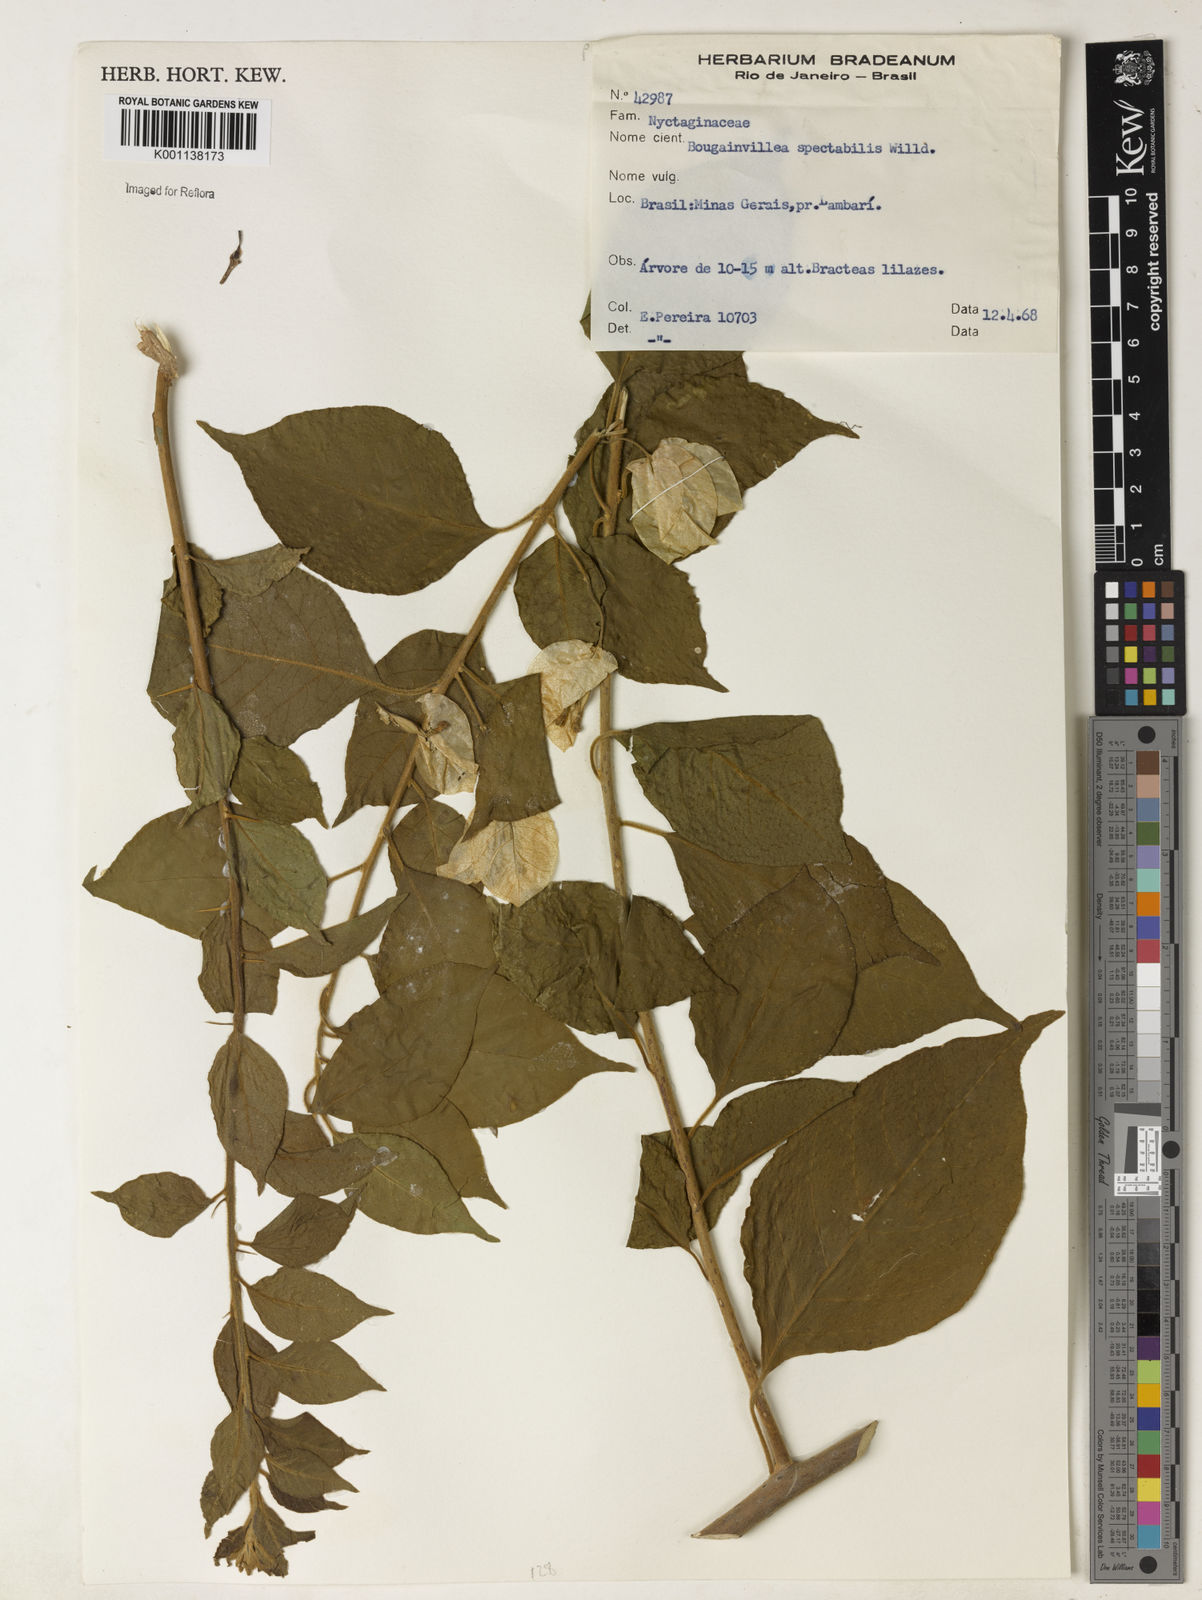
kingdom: Plantae
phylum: Tracheophyta
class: Magnoliopsida
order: Caryophyllales
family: Nyctaginaceae
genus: Bougainvillea
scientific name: Bougainvillea spectabilis
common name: Great bougainvillea
